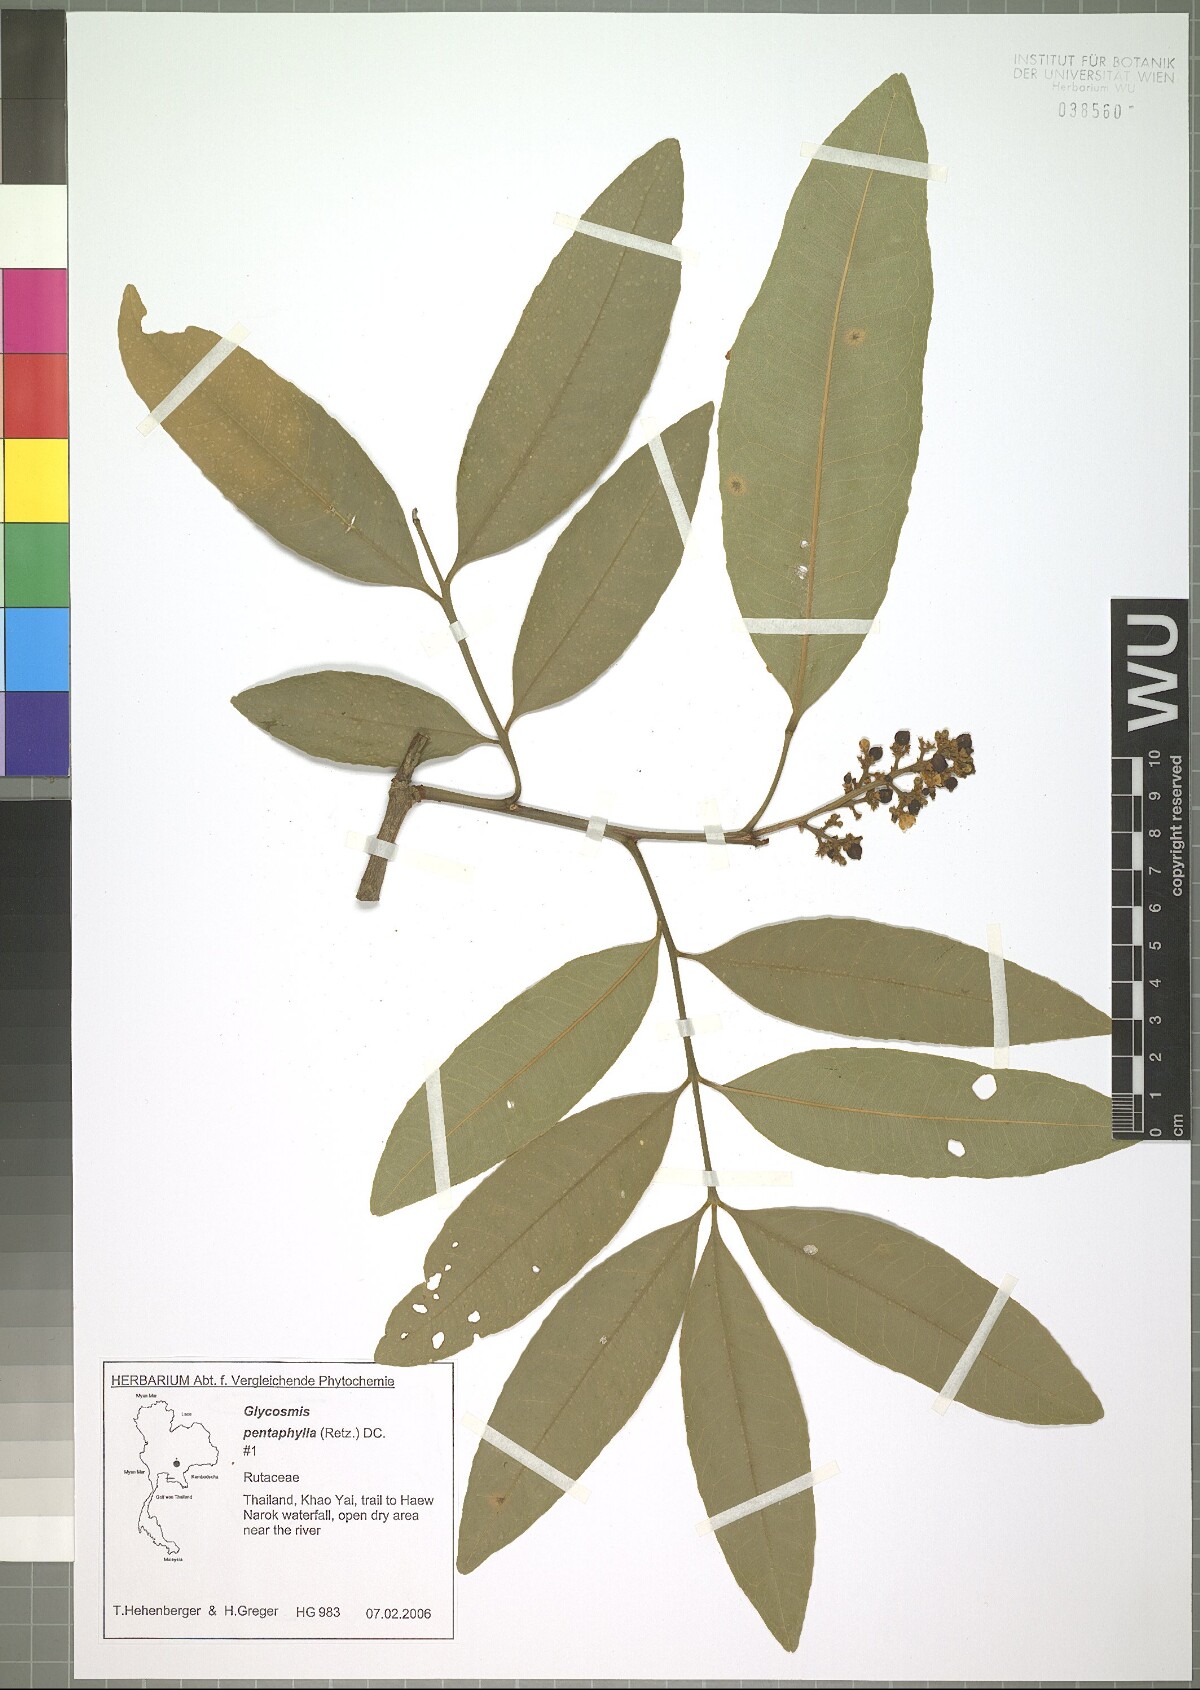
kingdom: Plantae
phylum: Tracheophyta
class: Magnoliopsida
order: Sapindales
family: Rutaceae
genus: Glycosmis
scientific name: Glycosmis pentaphylla
